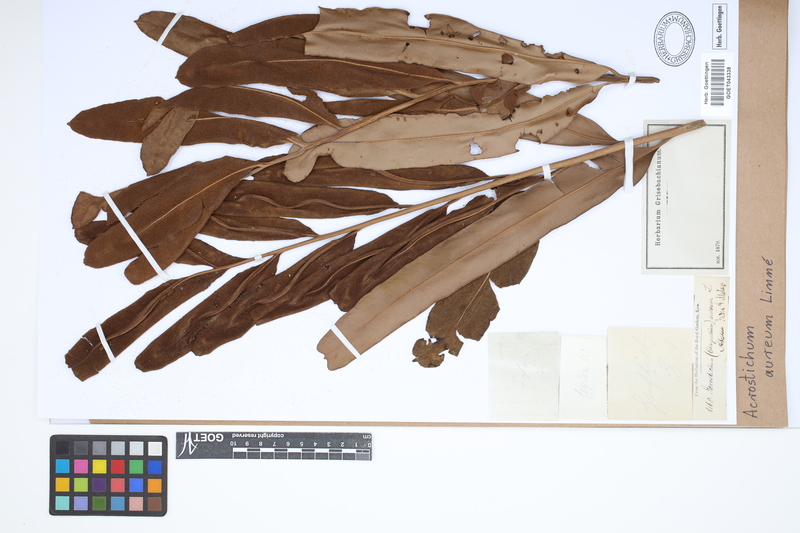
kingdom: Plantae
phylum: Tracheophyta
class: Polypodiopsida
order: Polypodiales
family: Pteridaceae
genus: Acrostichum
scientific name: Acrostichum aureum
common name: Leather fern
